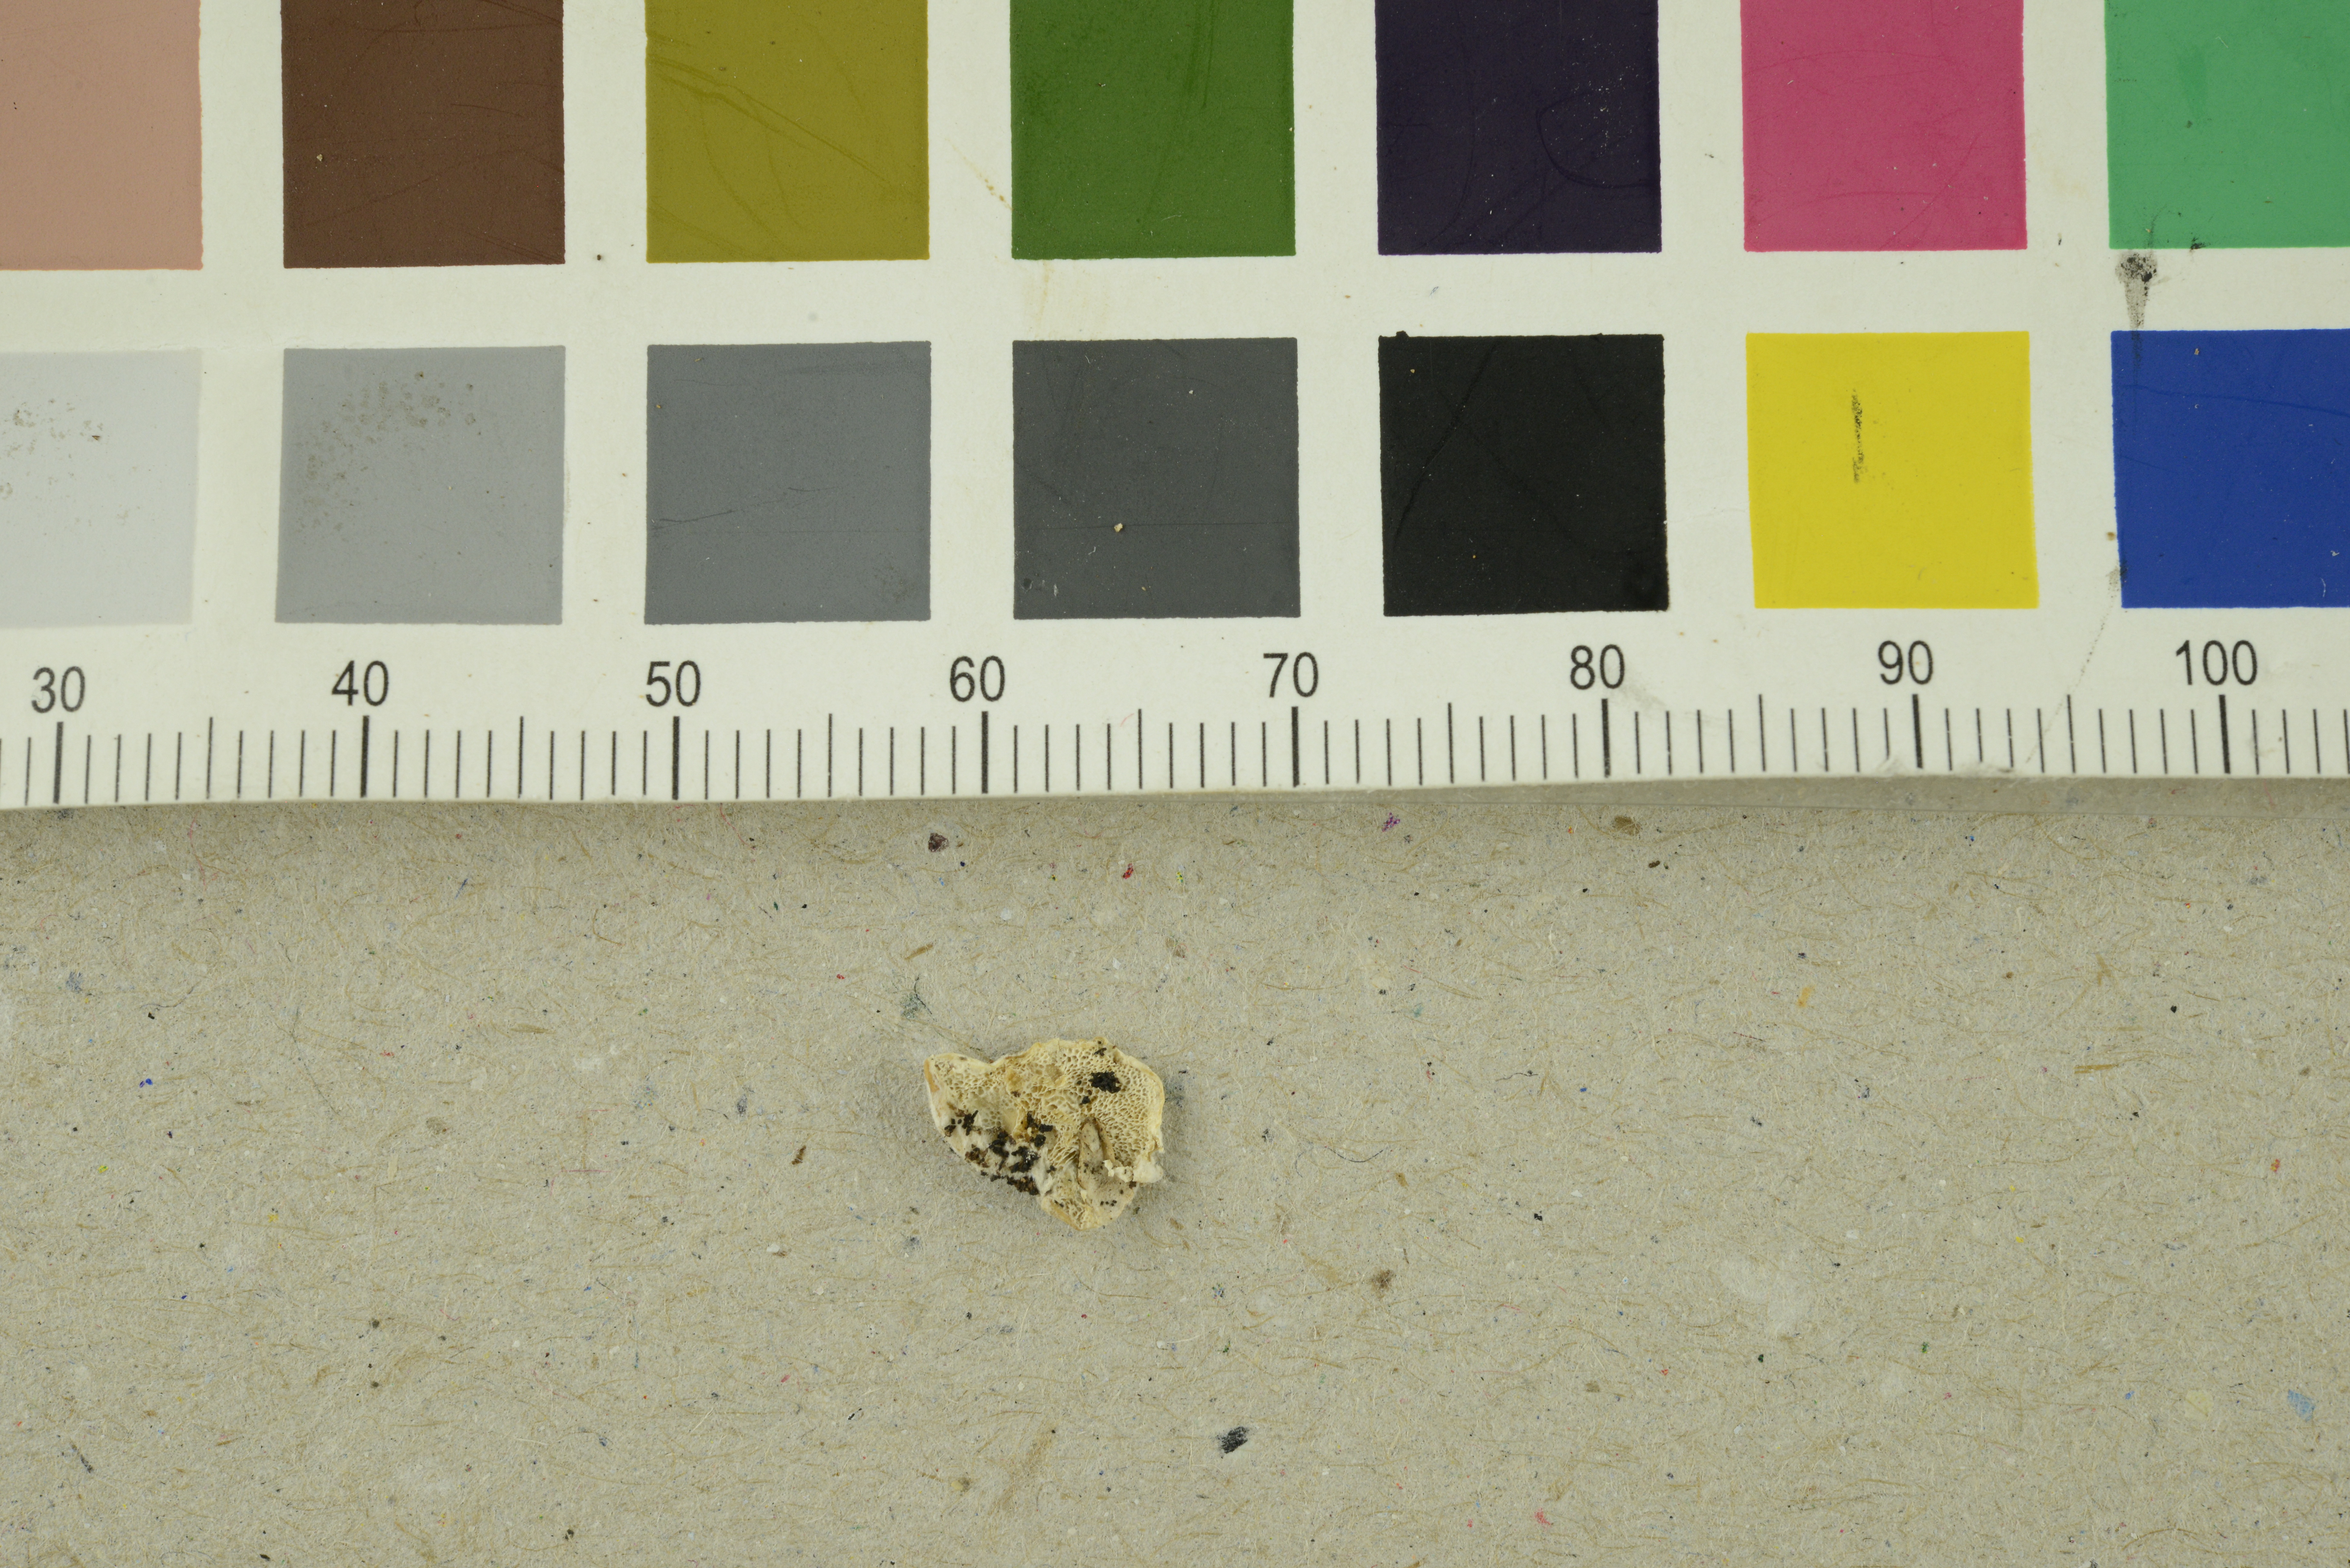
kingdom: Fungi
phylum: Basidiomycota
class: Agaricomycetes
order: Polyporales
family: Incrustoporiaceae
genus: Skeletocutis
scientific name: Skeletocutis carneogrisea
